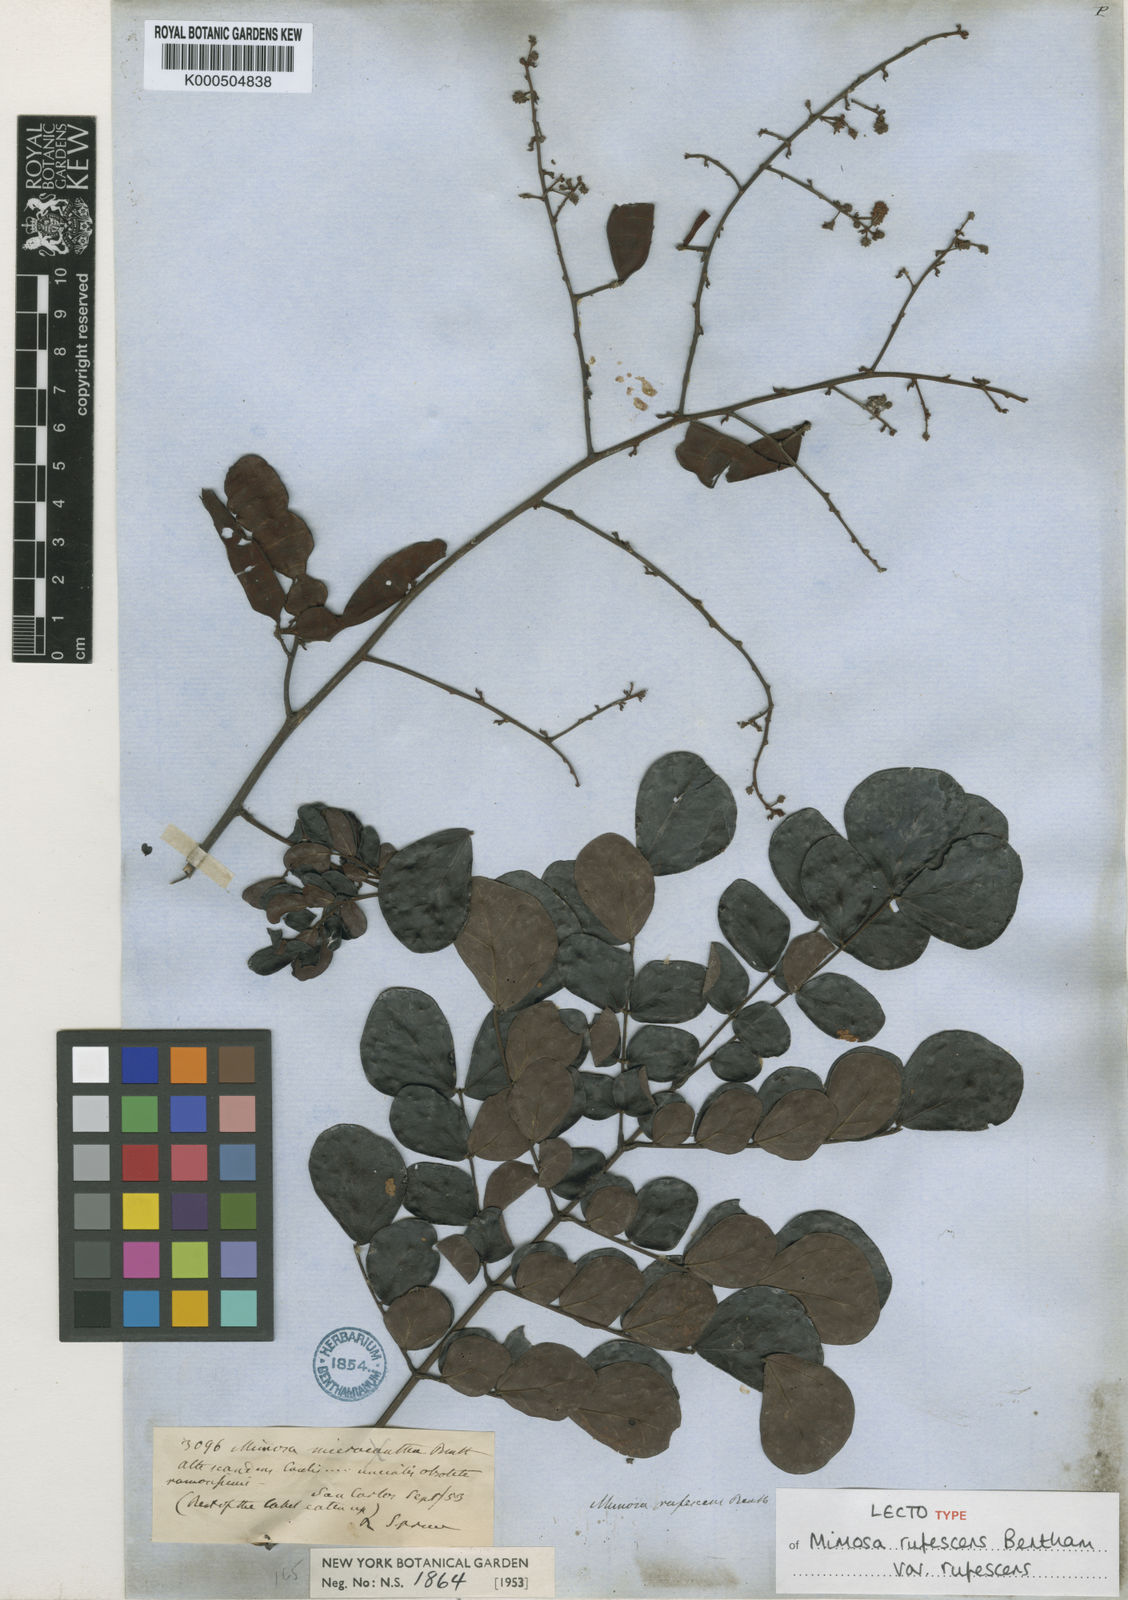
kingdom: Plantae
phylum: Tracheophyta
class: Magnoliopsida
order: Fabales
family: Fabaceae
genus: Mimosa
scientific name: Mimosa rufescens
